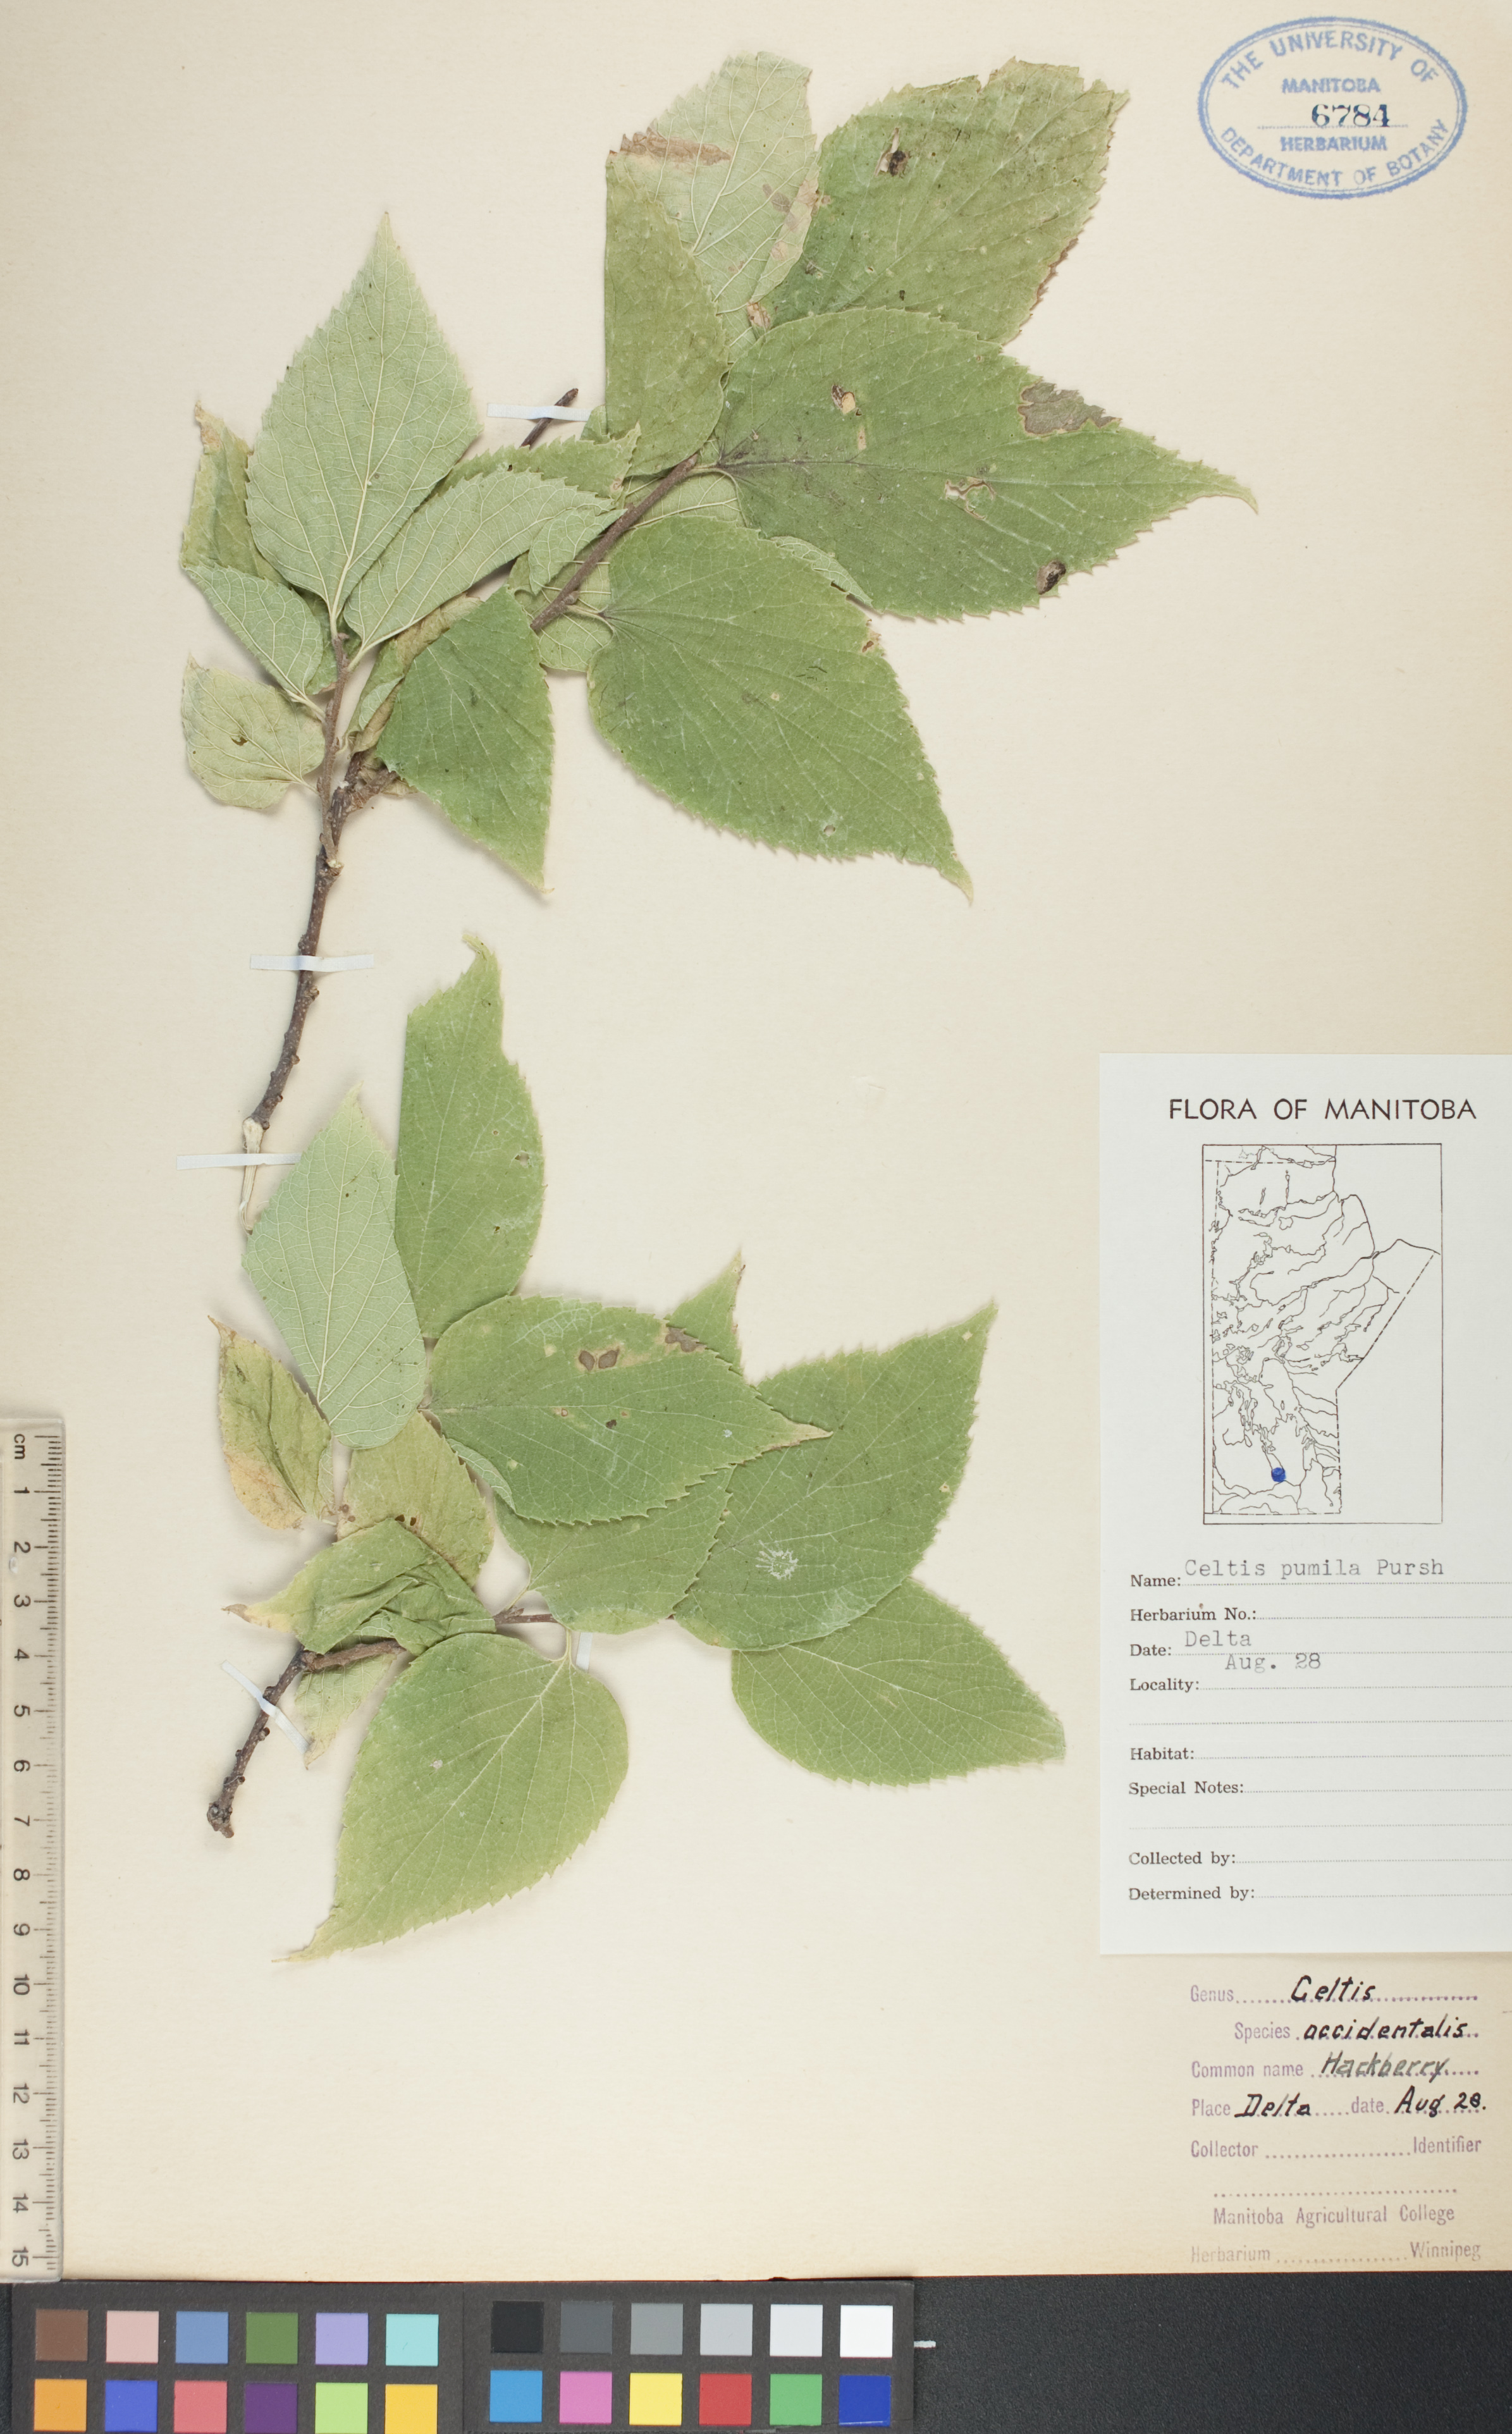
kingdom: Plantae
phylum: Tracheophyta
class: Magnoliopsida
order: Rosales
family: Cannabaceae
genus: Celtis
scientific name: Celtis occidentalis
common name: Common hackberry
